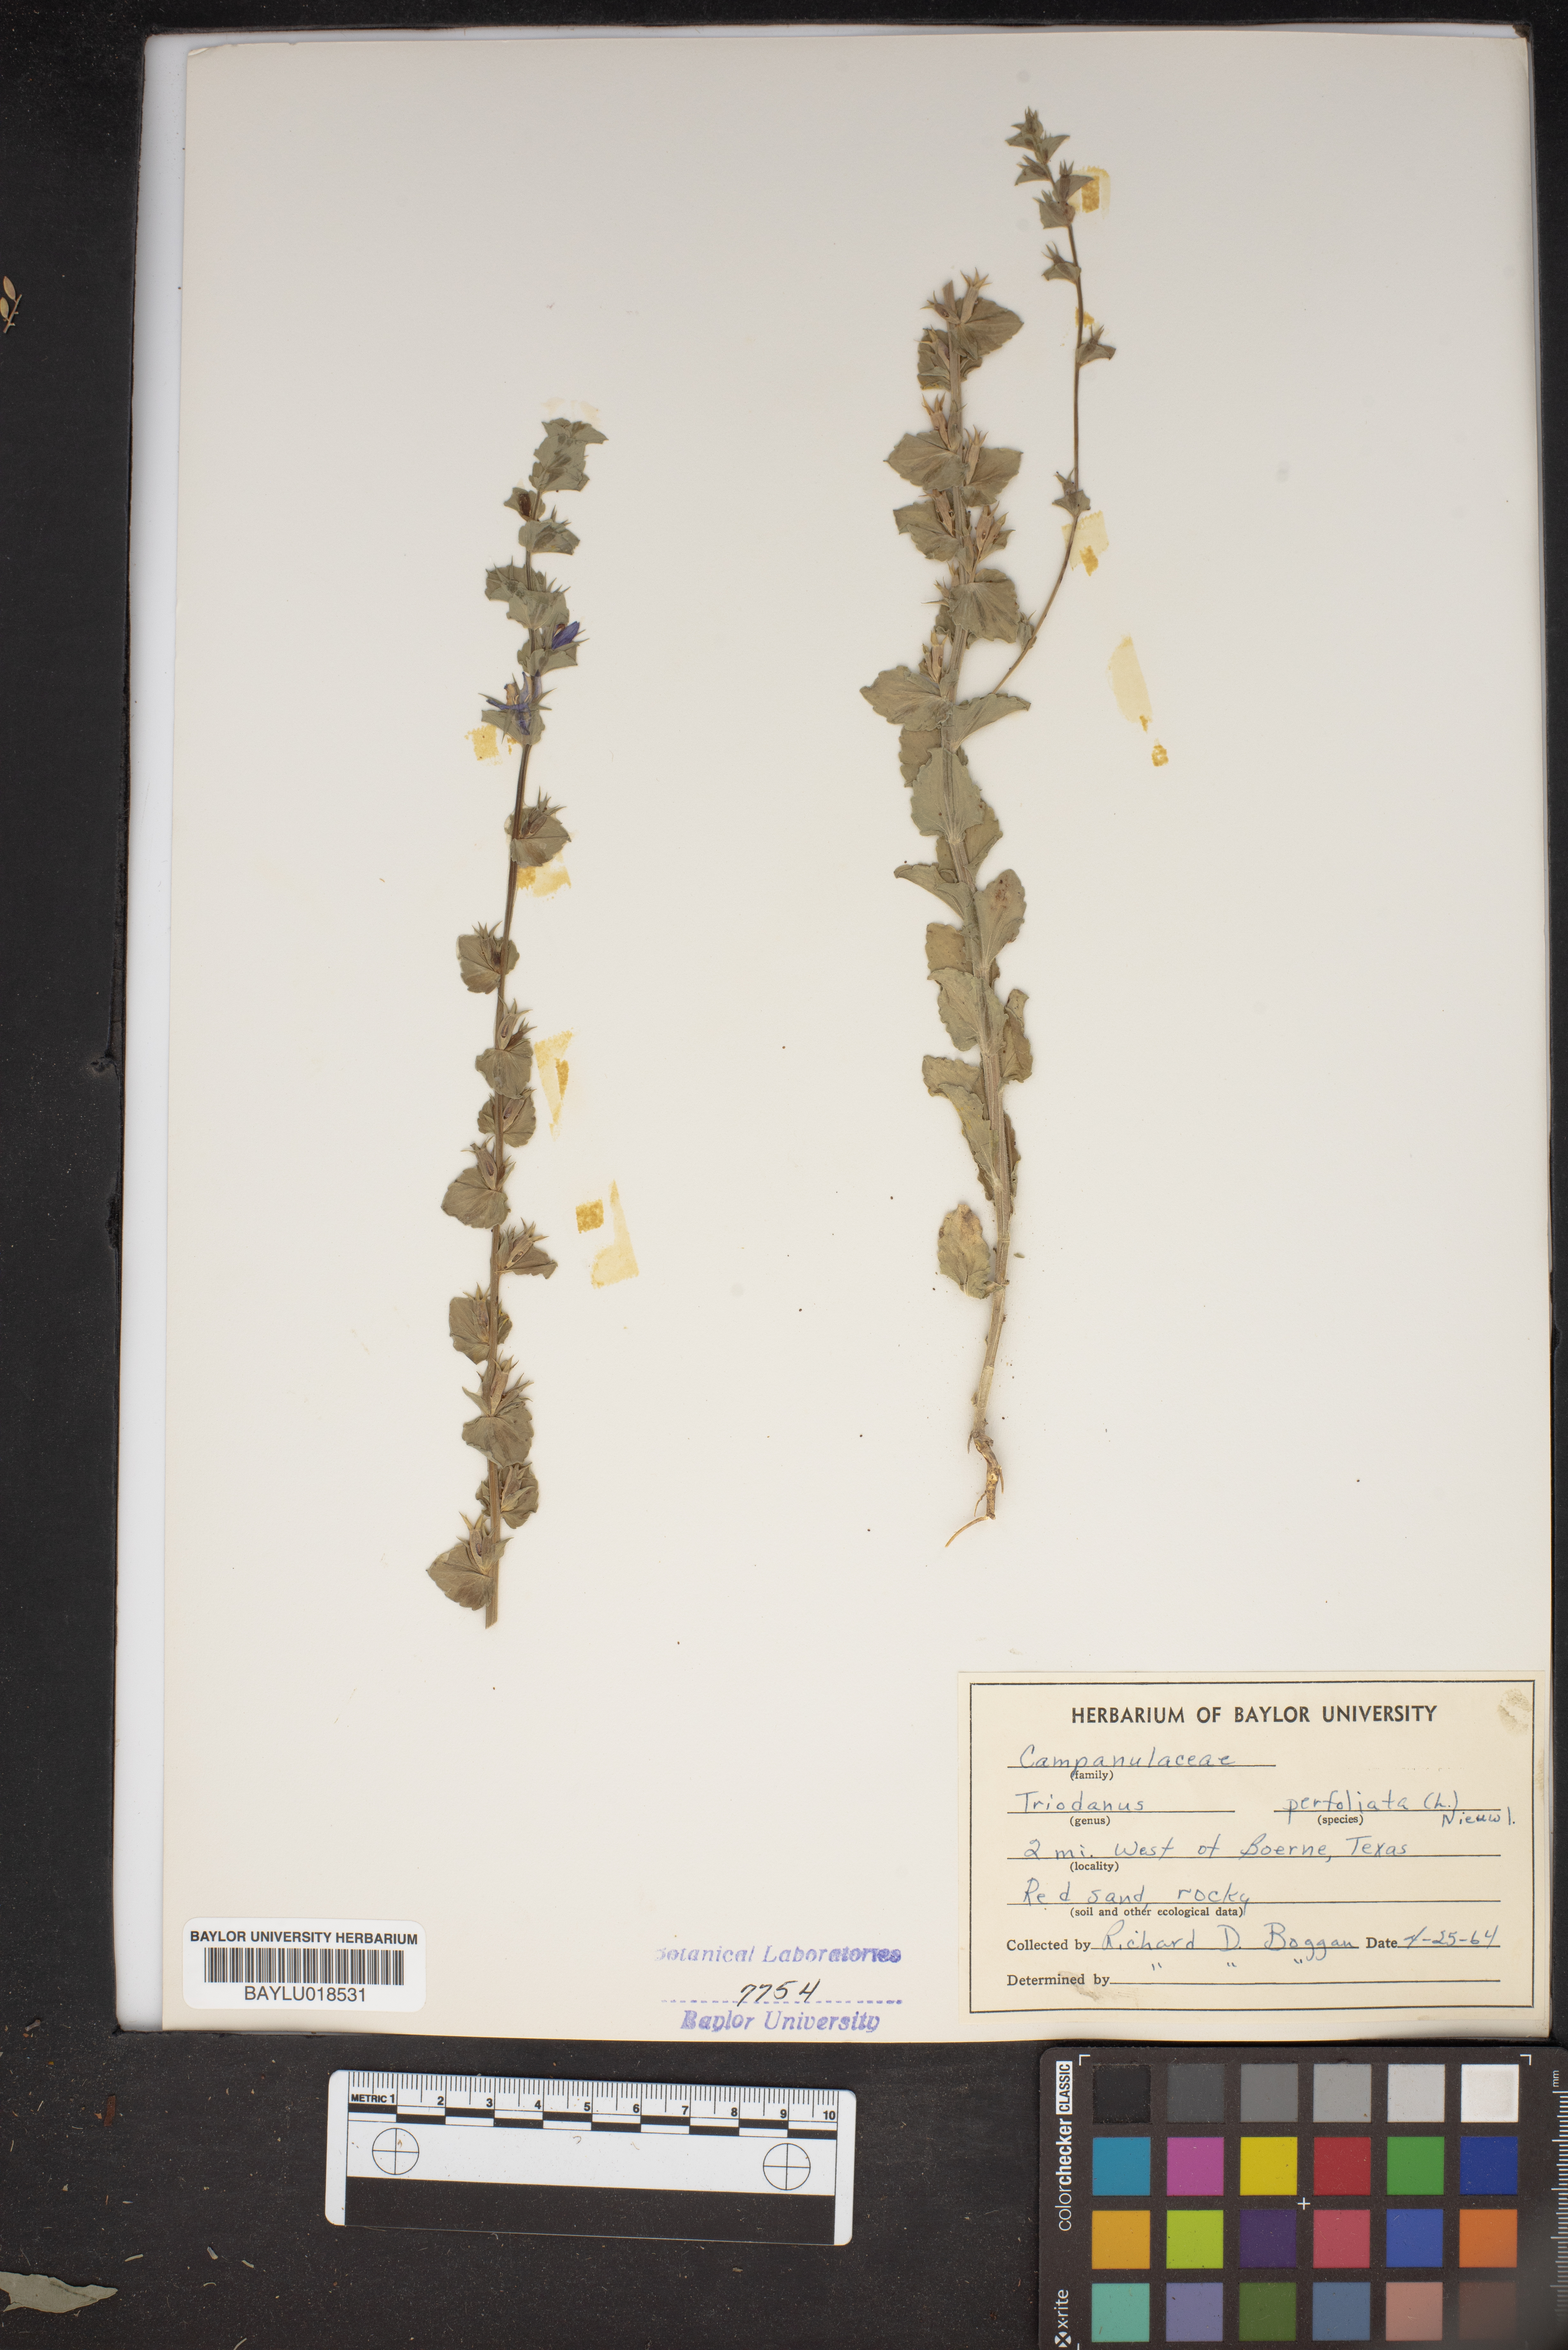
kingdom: Plantae
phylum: Tracheophyta
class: Magnoliopsida
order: Asterales
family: Campanulaceae
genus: Triodanis
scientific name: Triodanis perfoliata
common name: Clasping venus' looking-glass
